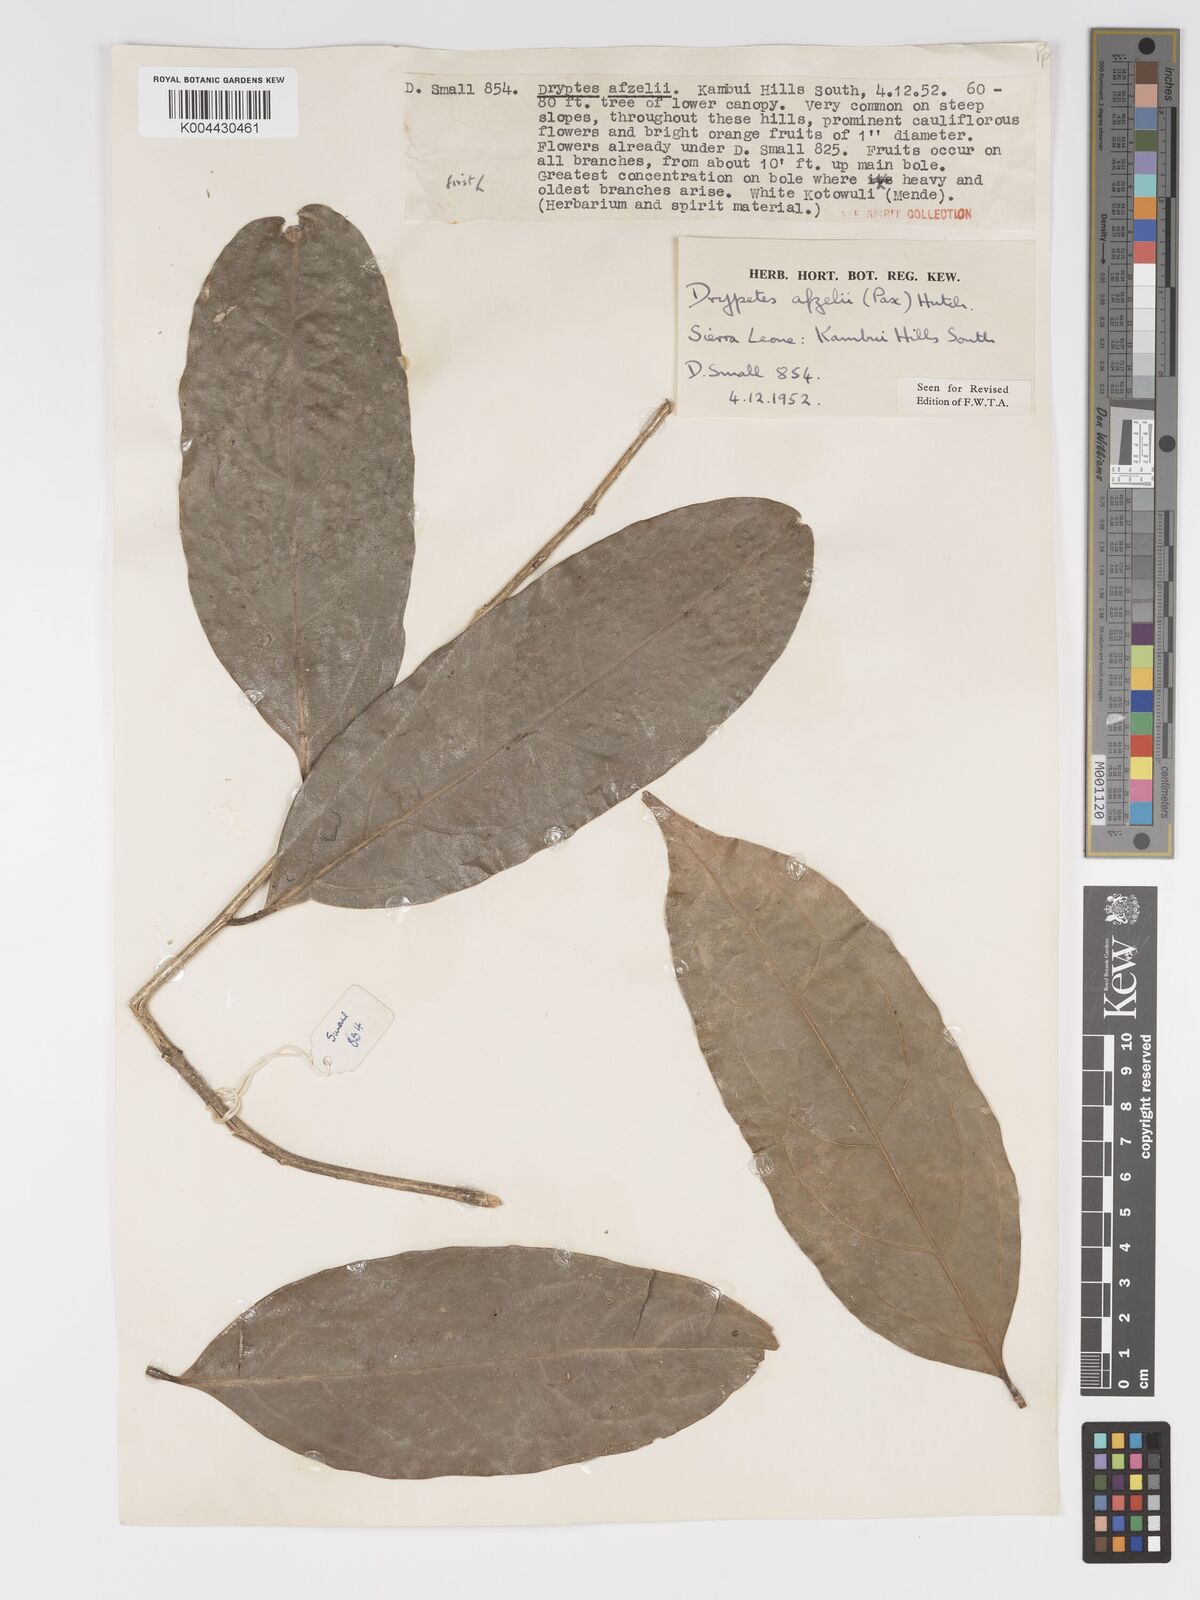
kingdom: Plantae
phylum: Tracheophyta
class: Magnoliopsida
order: Malpighiales
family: Putranjivaceae
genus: Drypetes
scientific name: Drypetes afzelii
